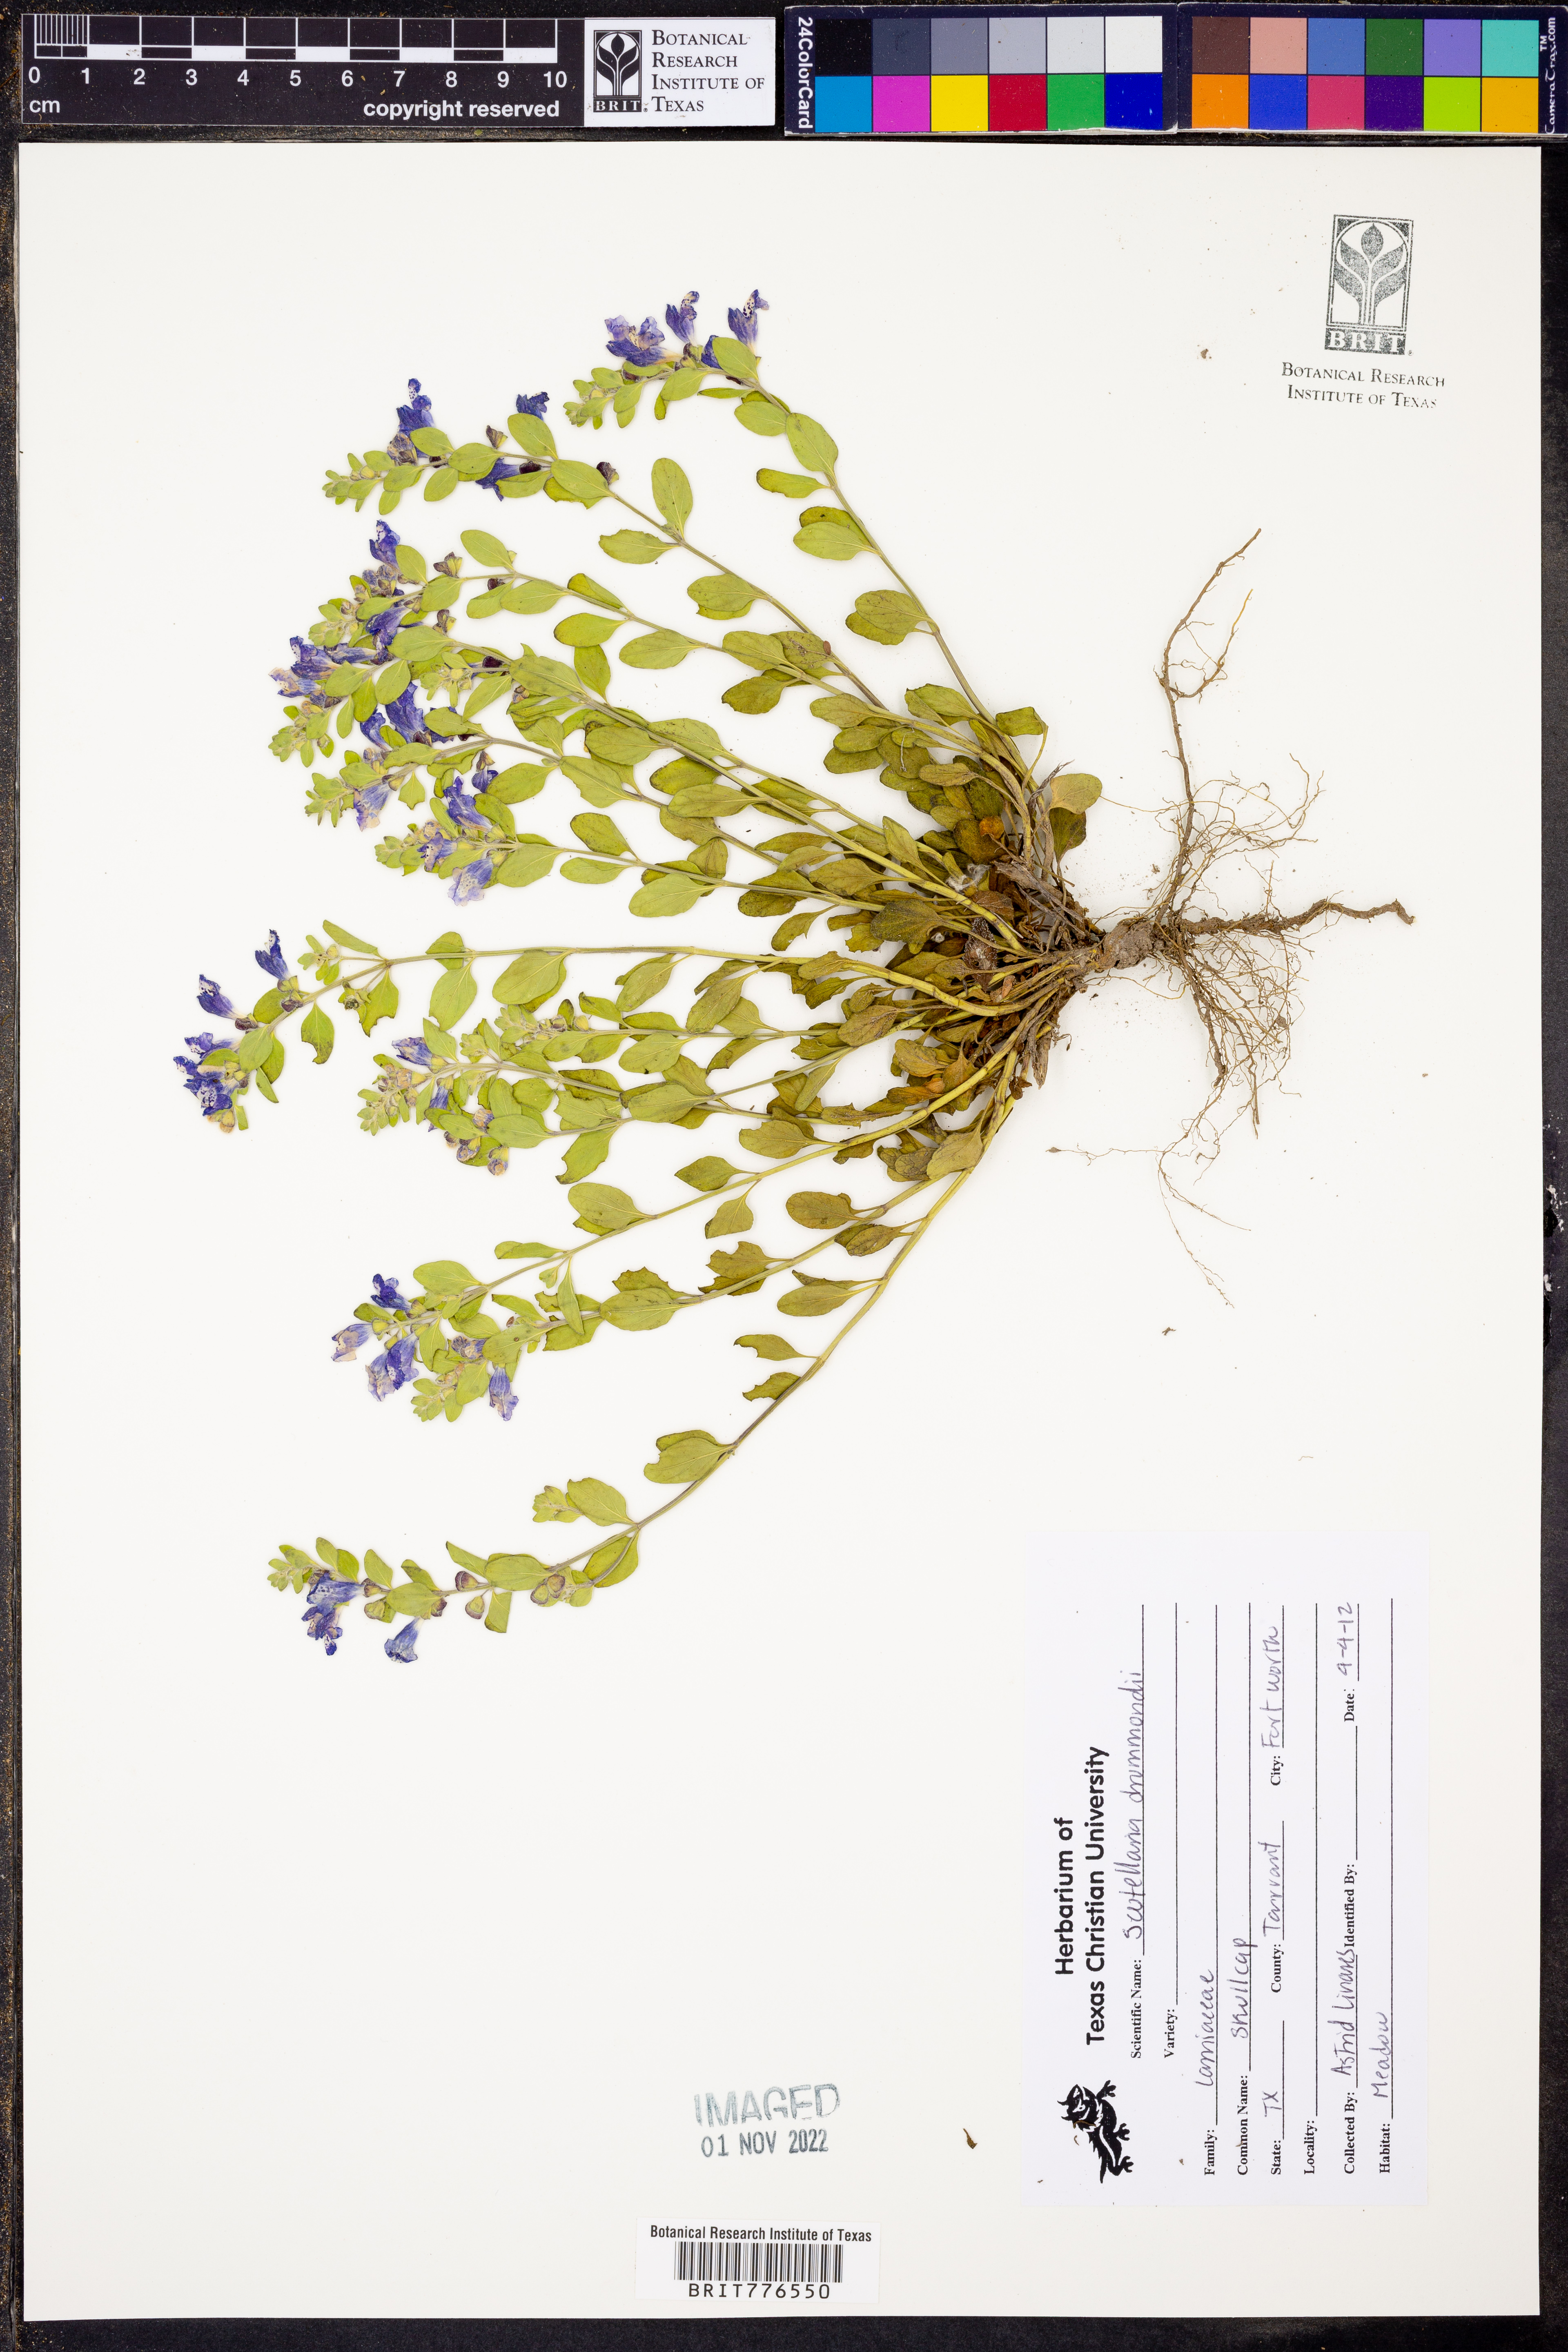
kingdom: Plantae
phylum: Tracheophyta
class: Magnoliopsida
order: Lamiales
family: Lamiaceae
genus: Scutellaria
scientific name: Scutellaria drummondii
